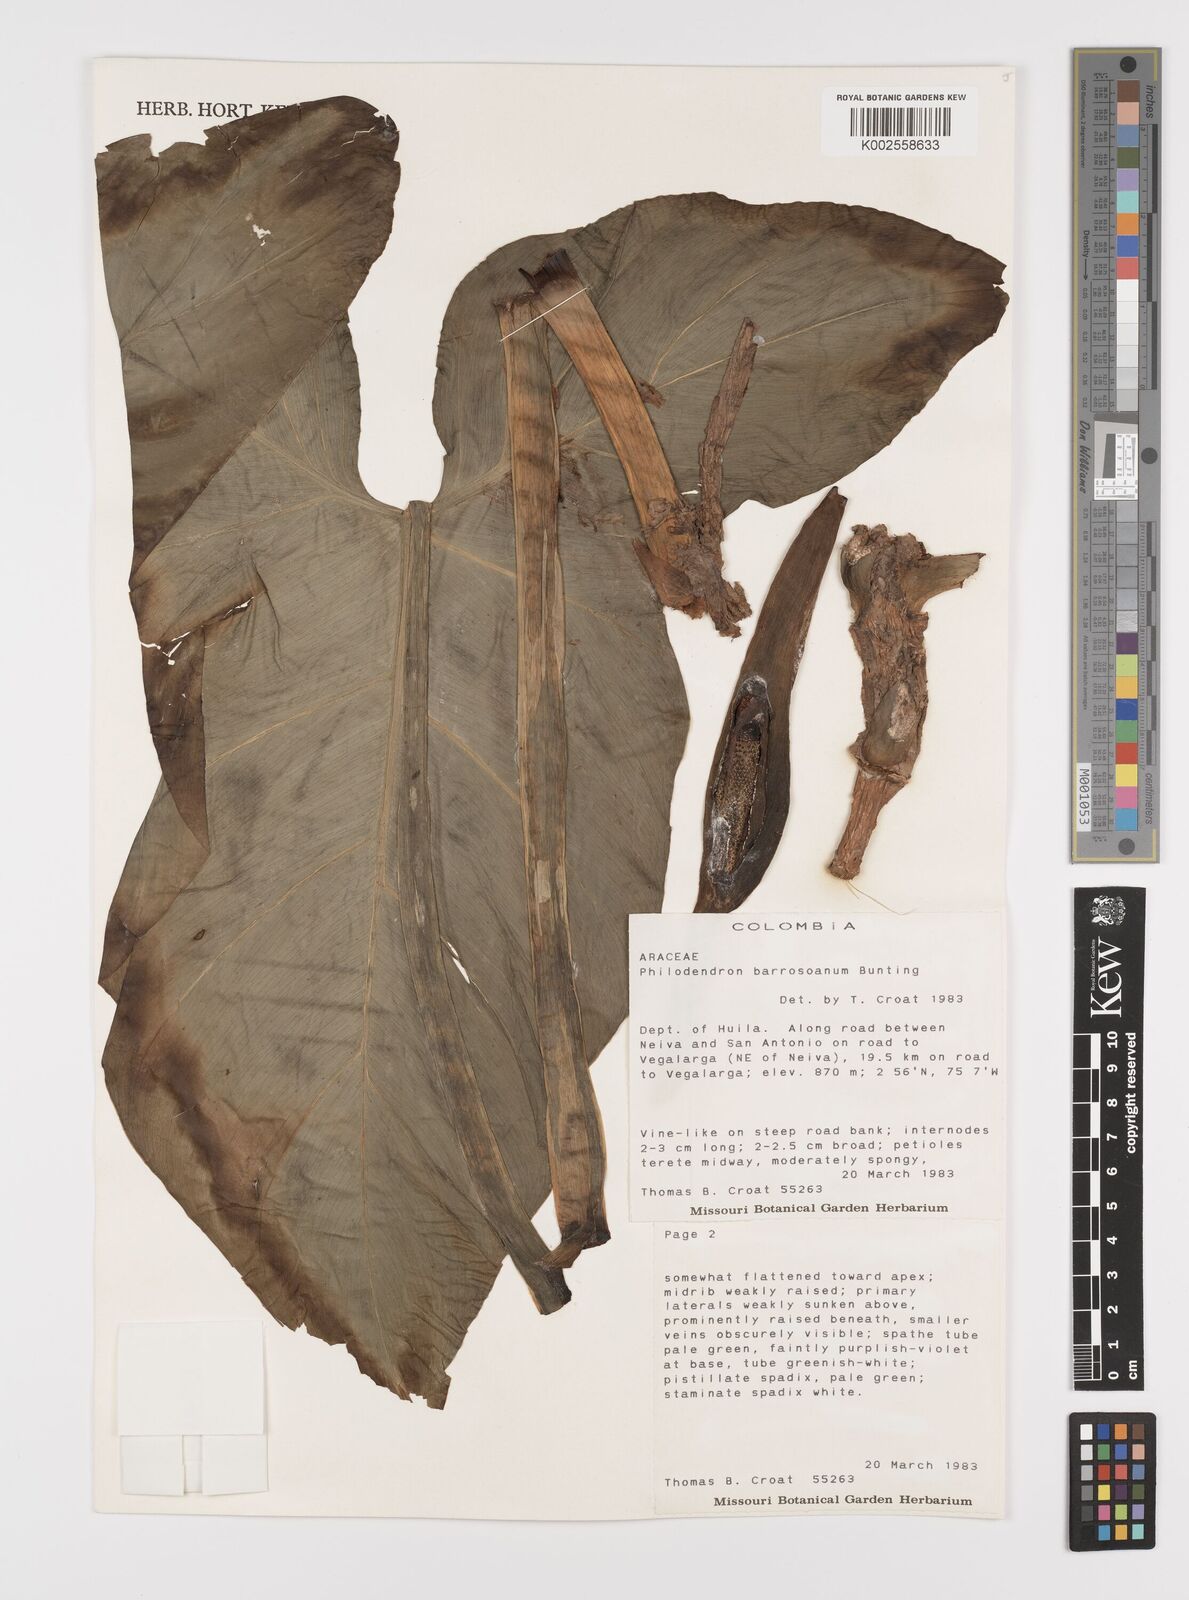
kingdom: Plantae
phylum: Tracheophyta
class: Liliopsida
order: Alismatales
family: Araceae
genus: Philodendron
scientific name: Philodendron barrosoanum
